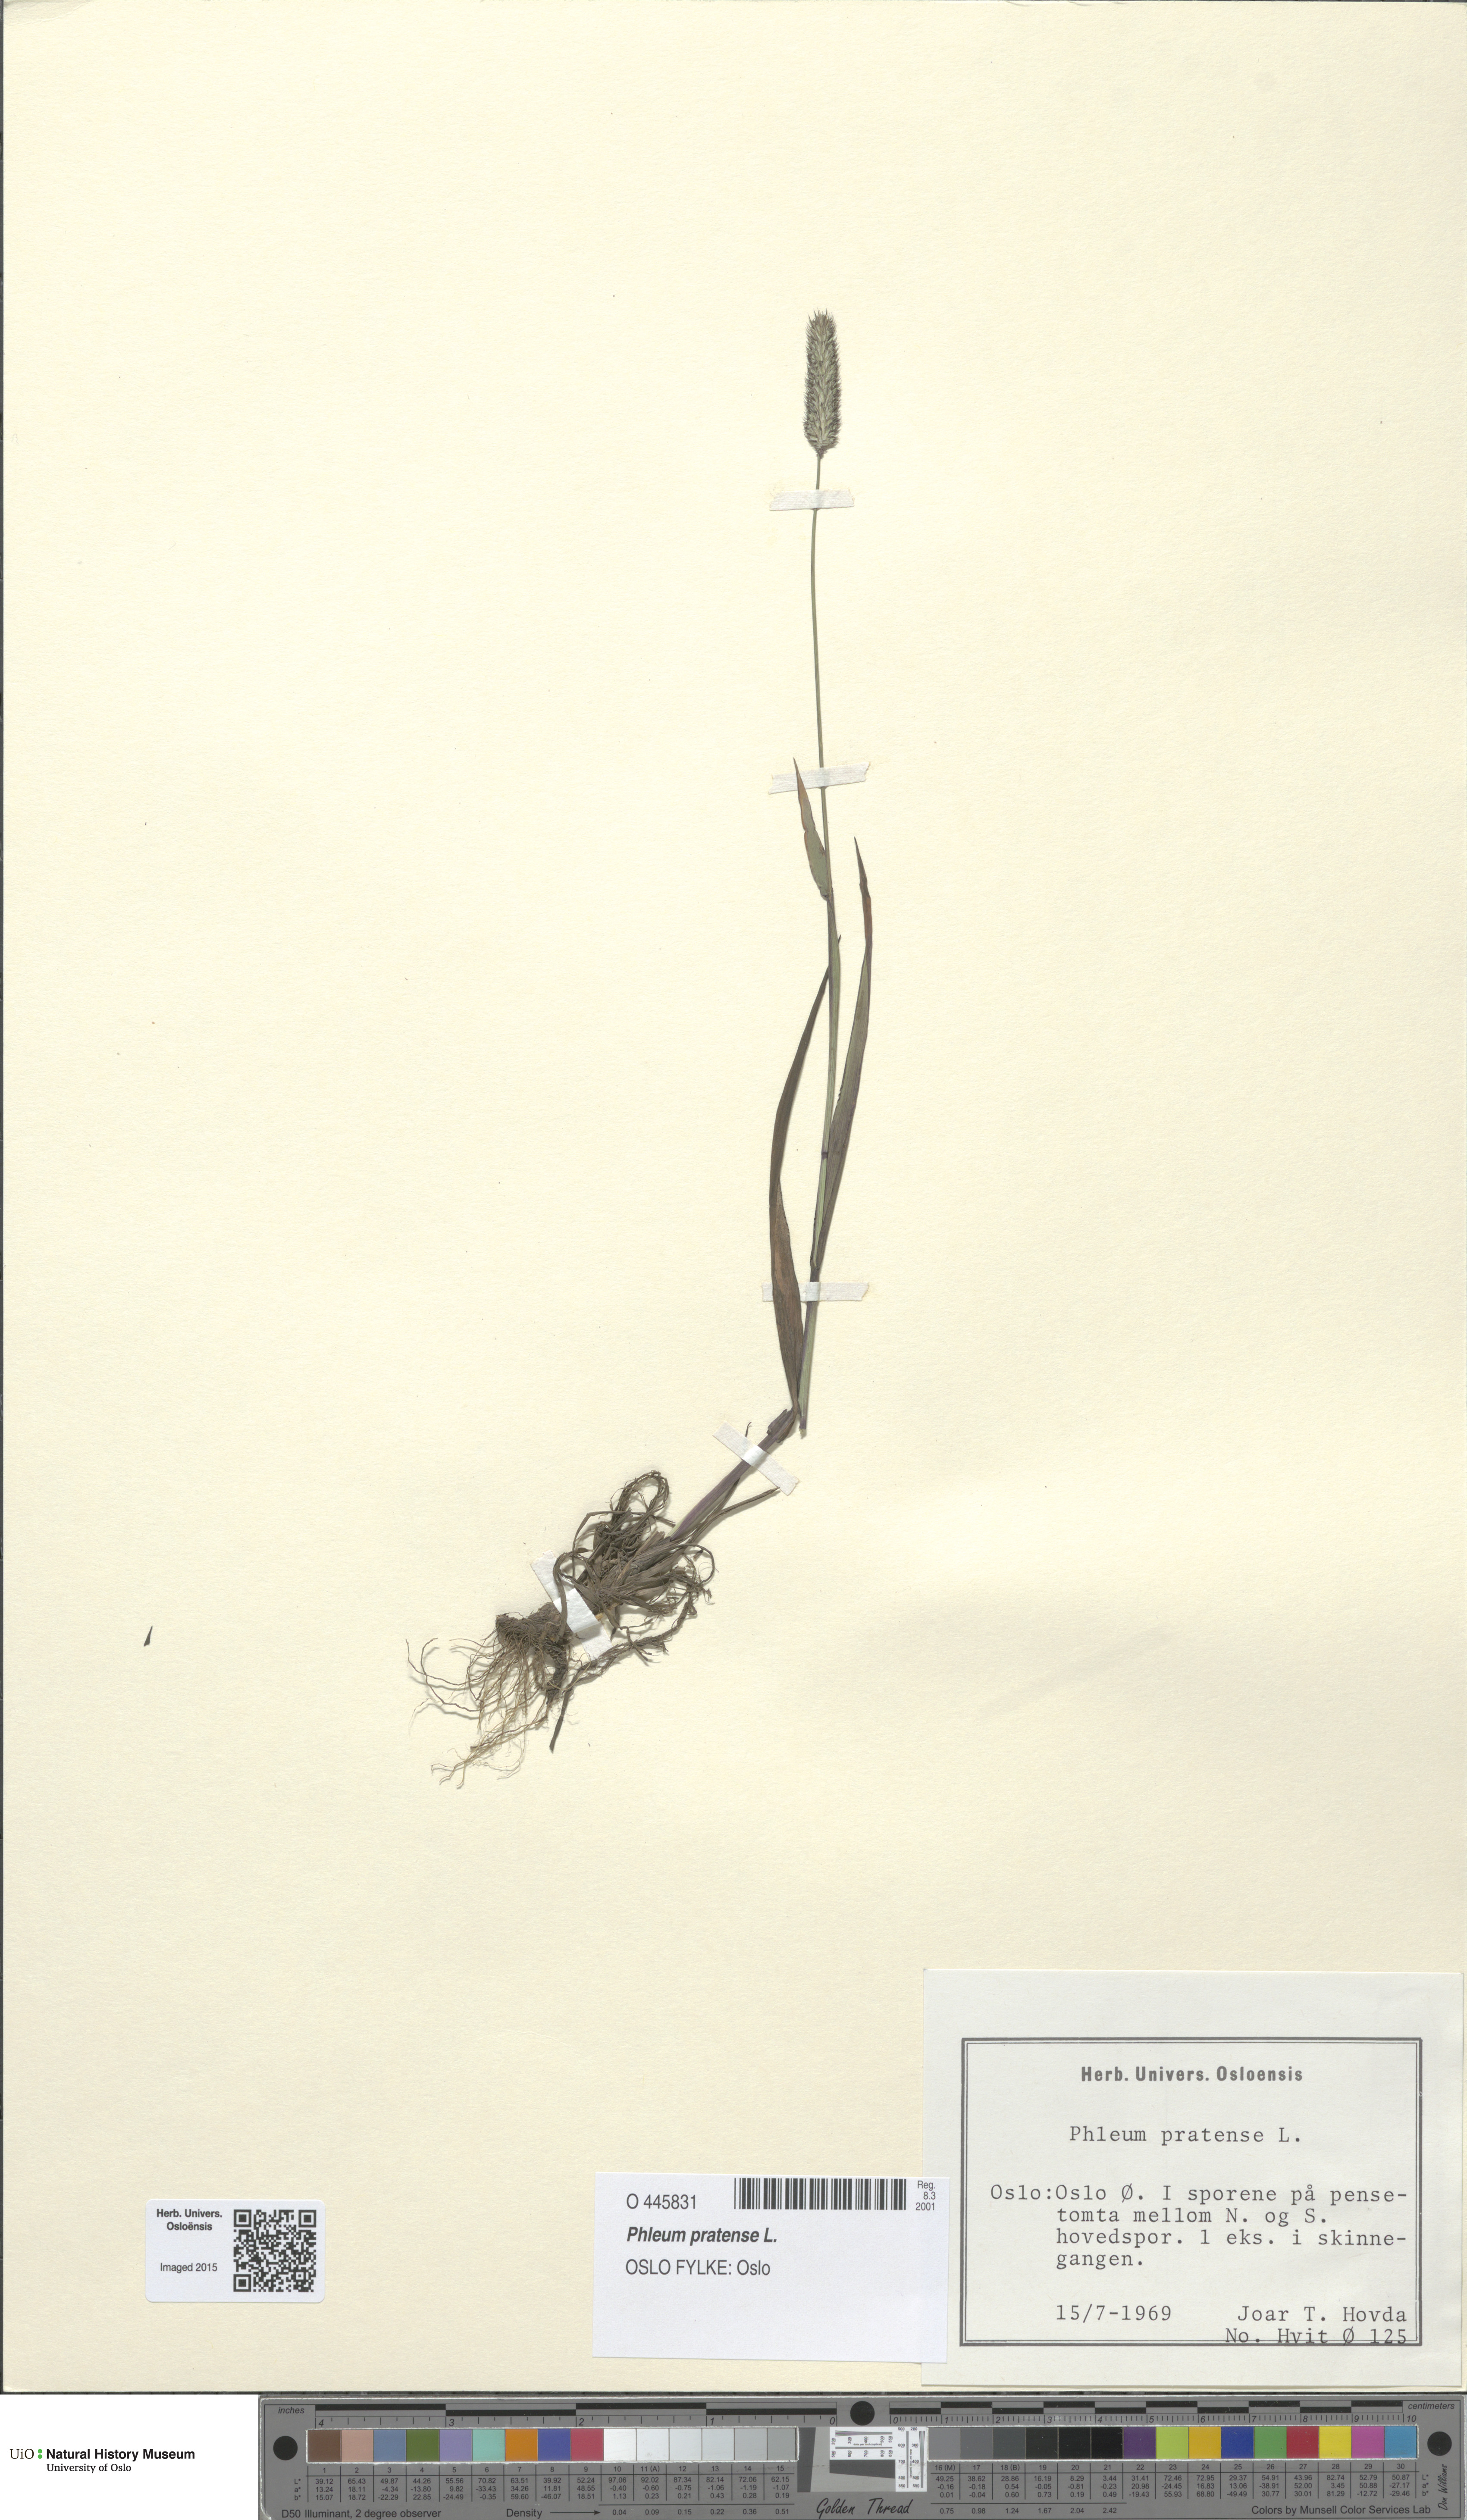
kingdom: Plantae
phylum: Tracheophyta
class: Liliopsida
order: Poales
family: Poaceae
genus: Phleum
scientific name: Phleum pratense
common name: Timothy grass
